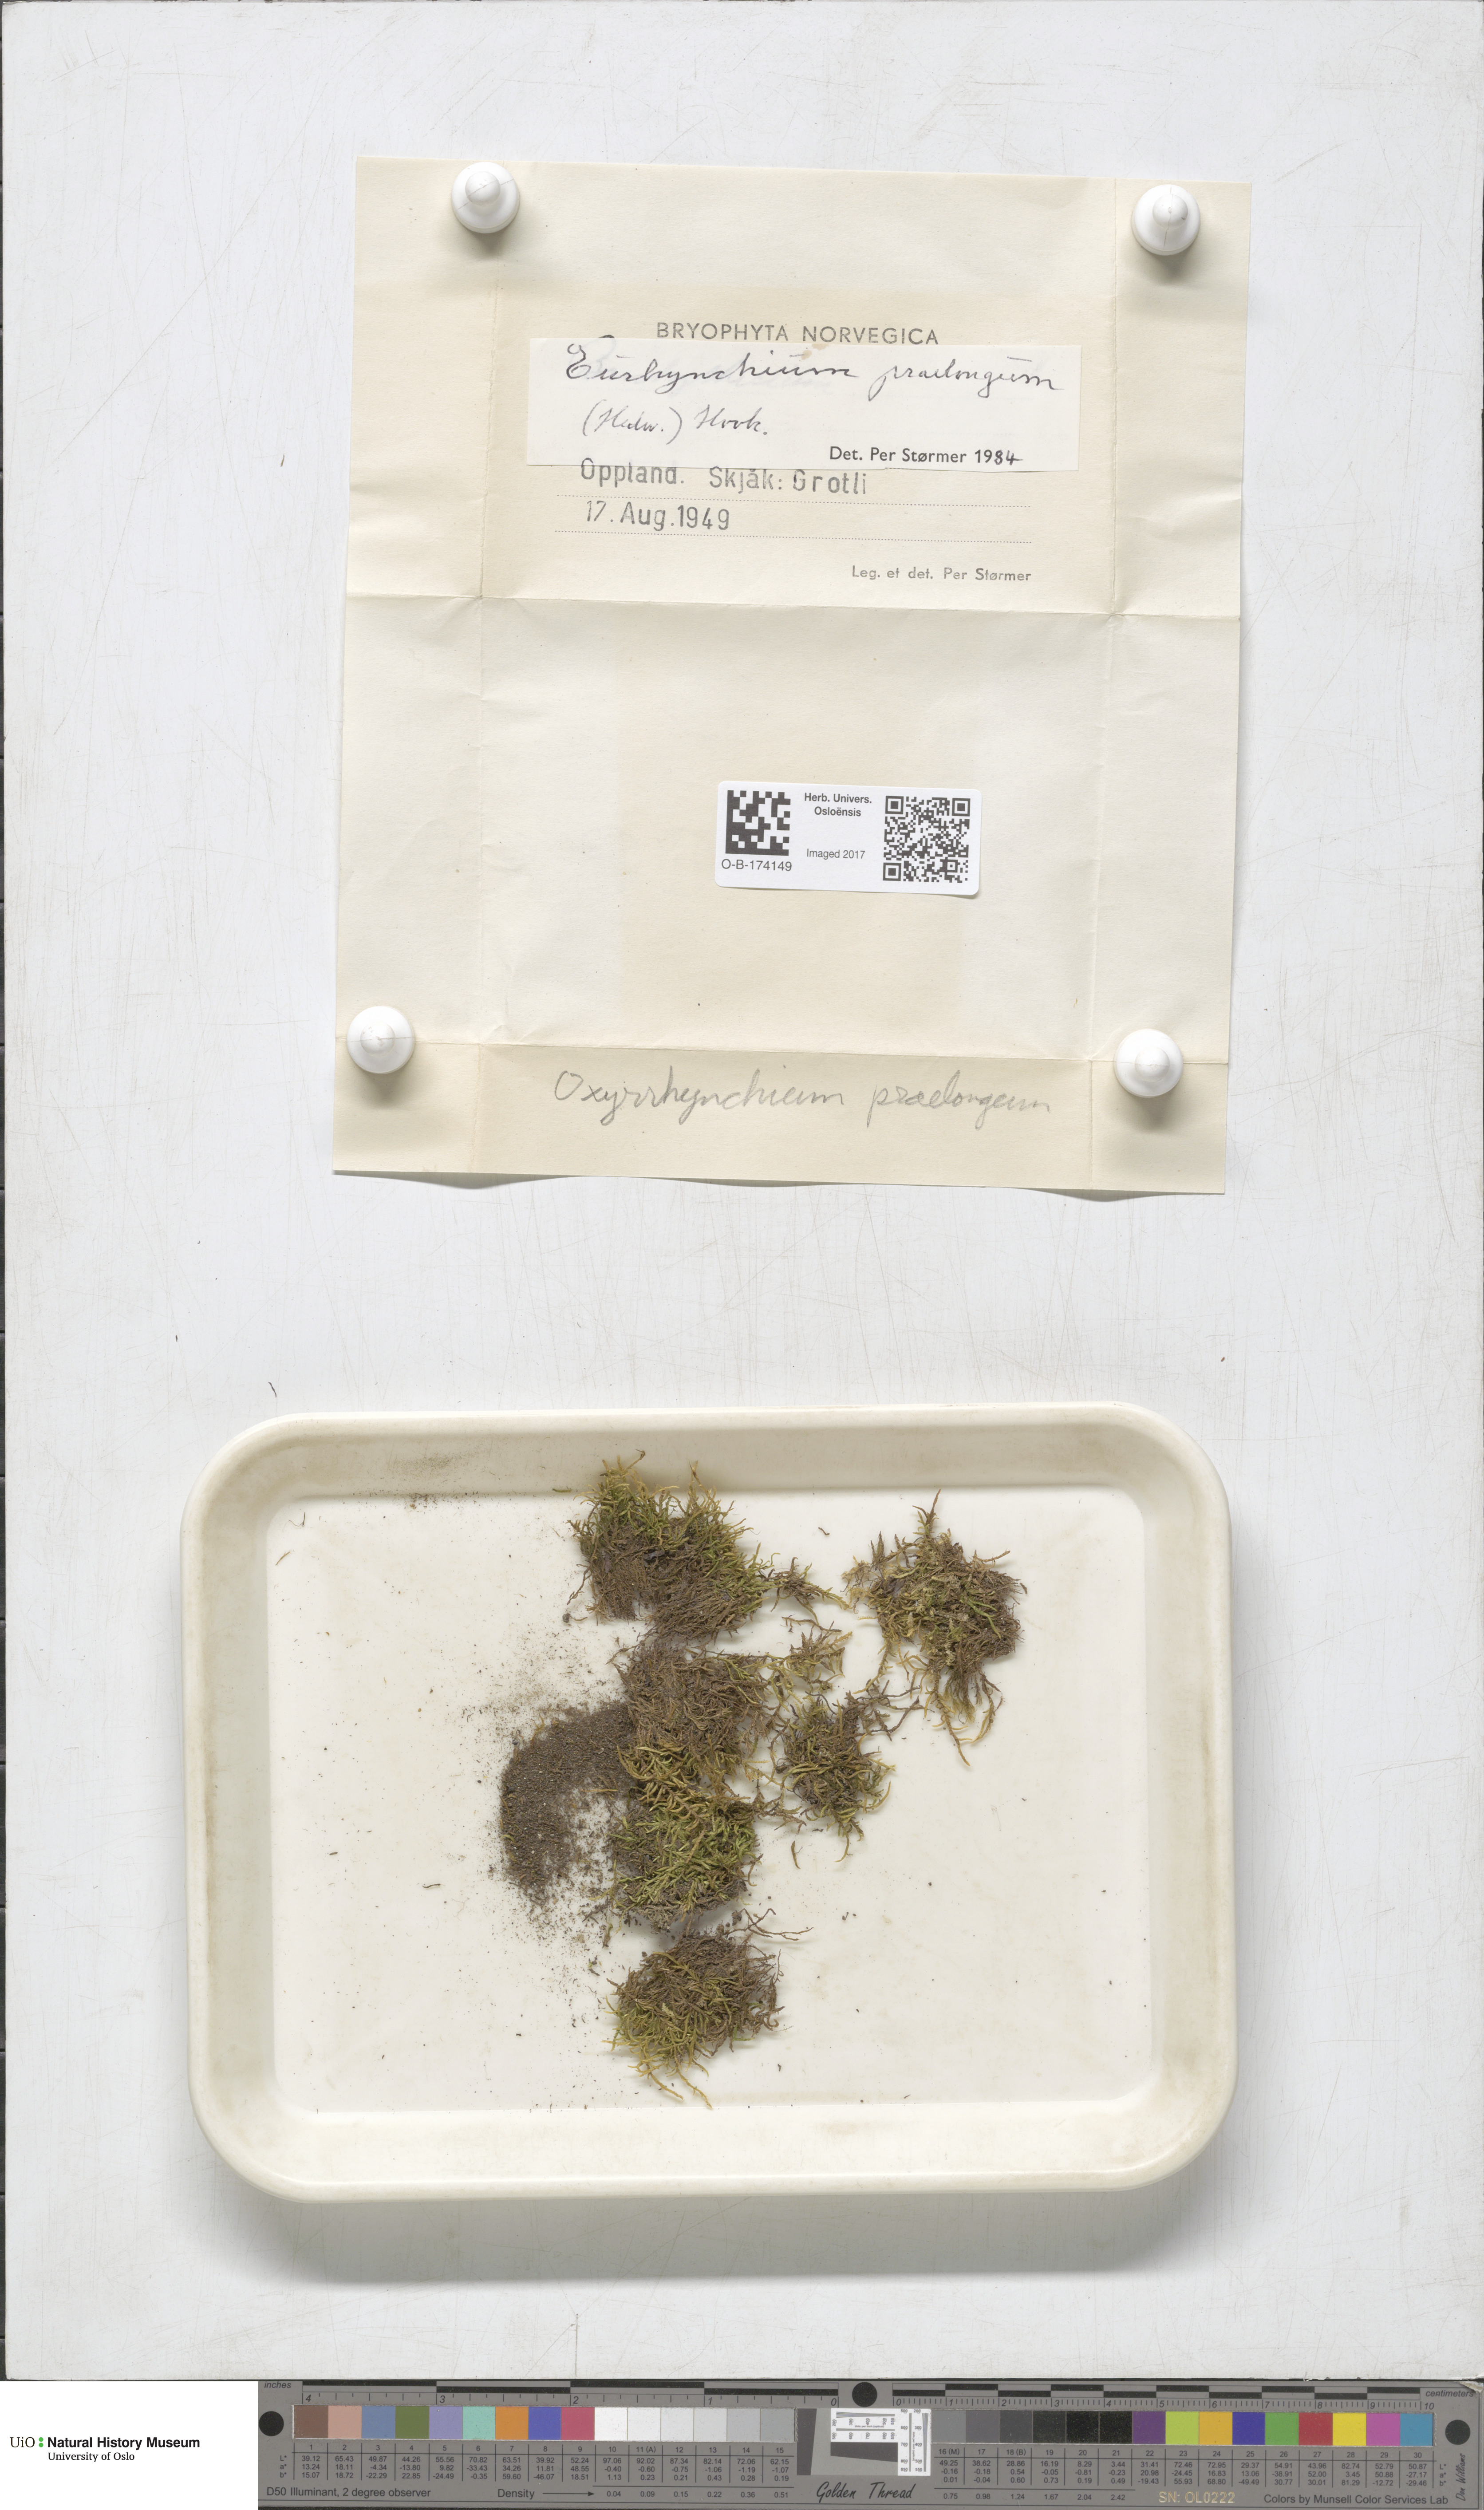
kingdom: Plantae
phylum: Bryophyta
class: Bryopsida
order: Hypnales
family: Brachytheciaceae
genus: Kindbergia
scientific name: Kindbergia praelonga
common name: Slender beaked moss
